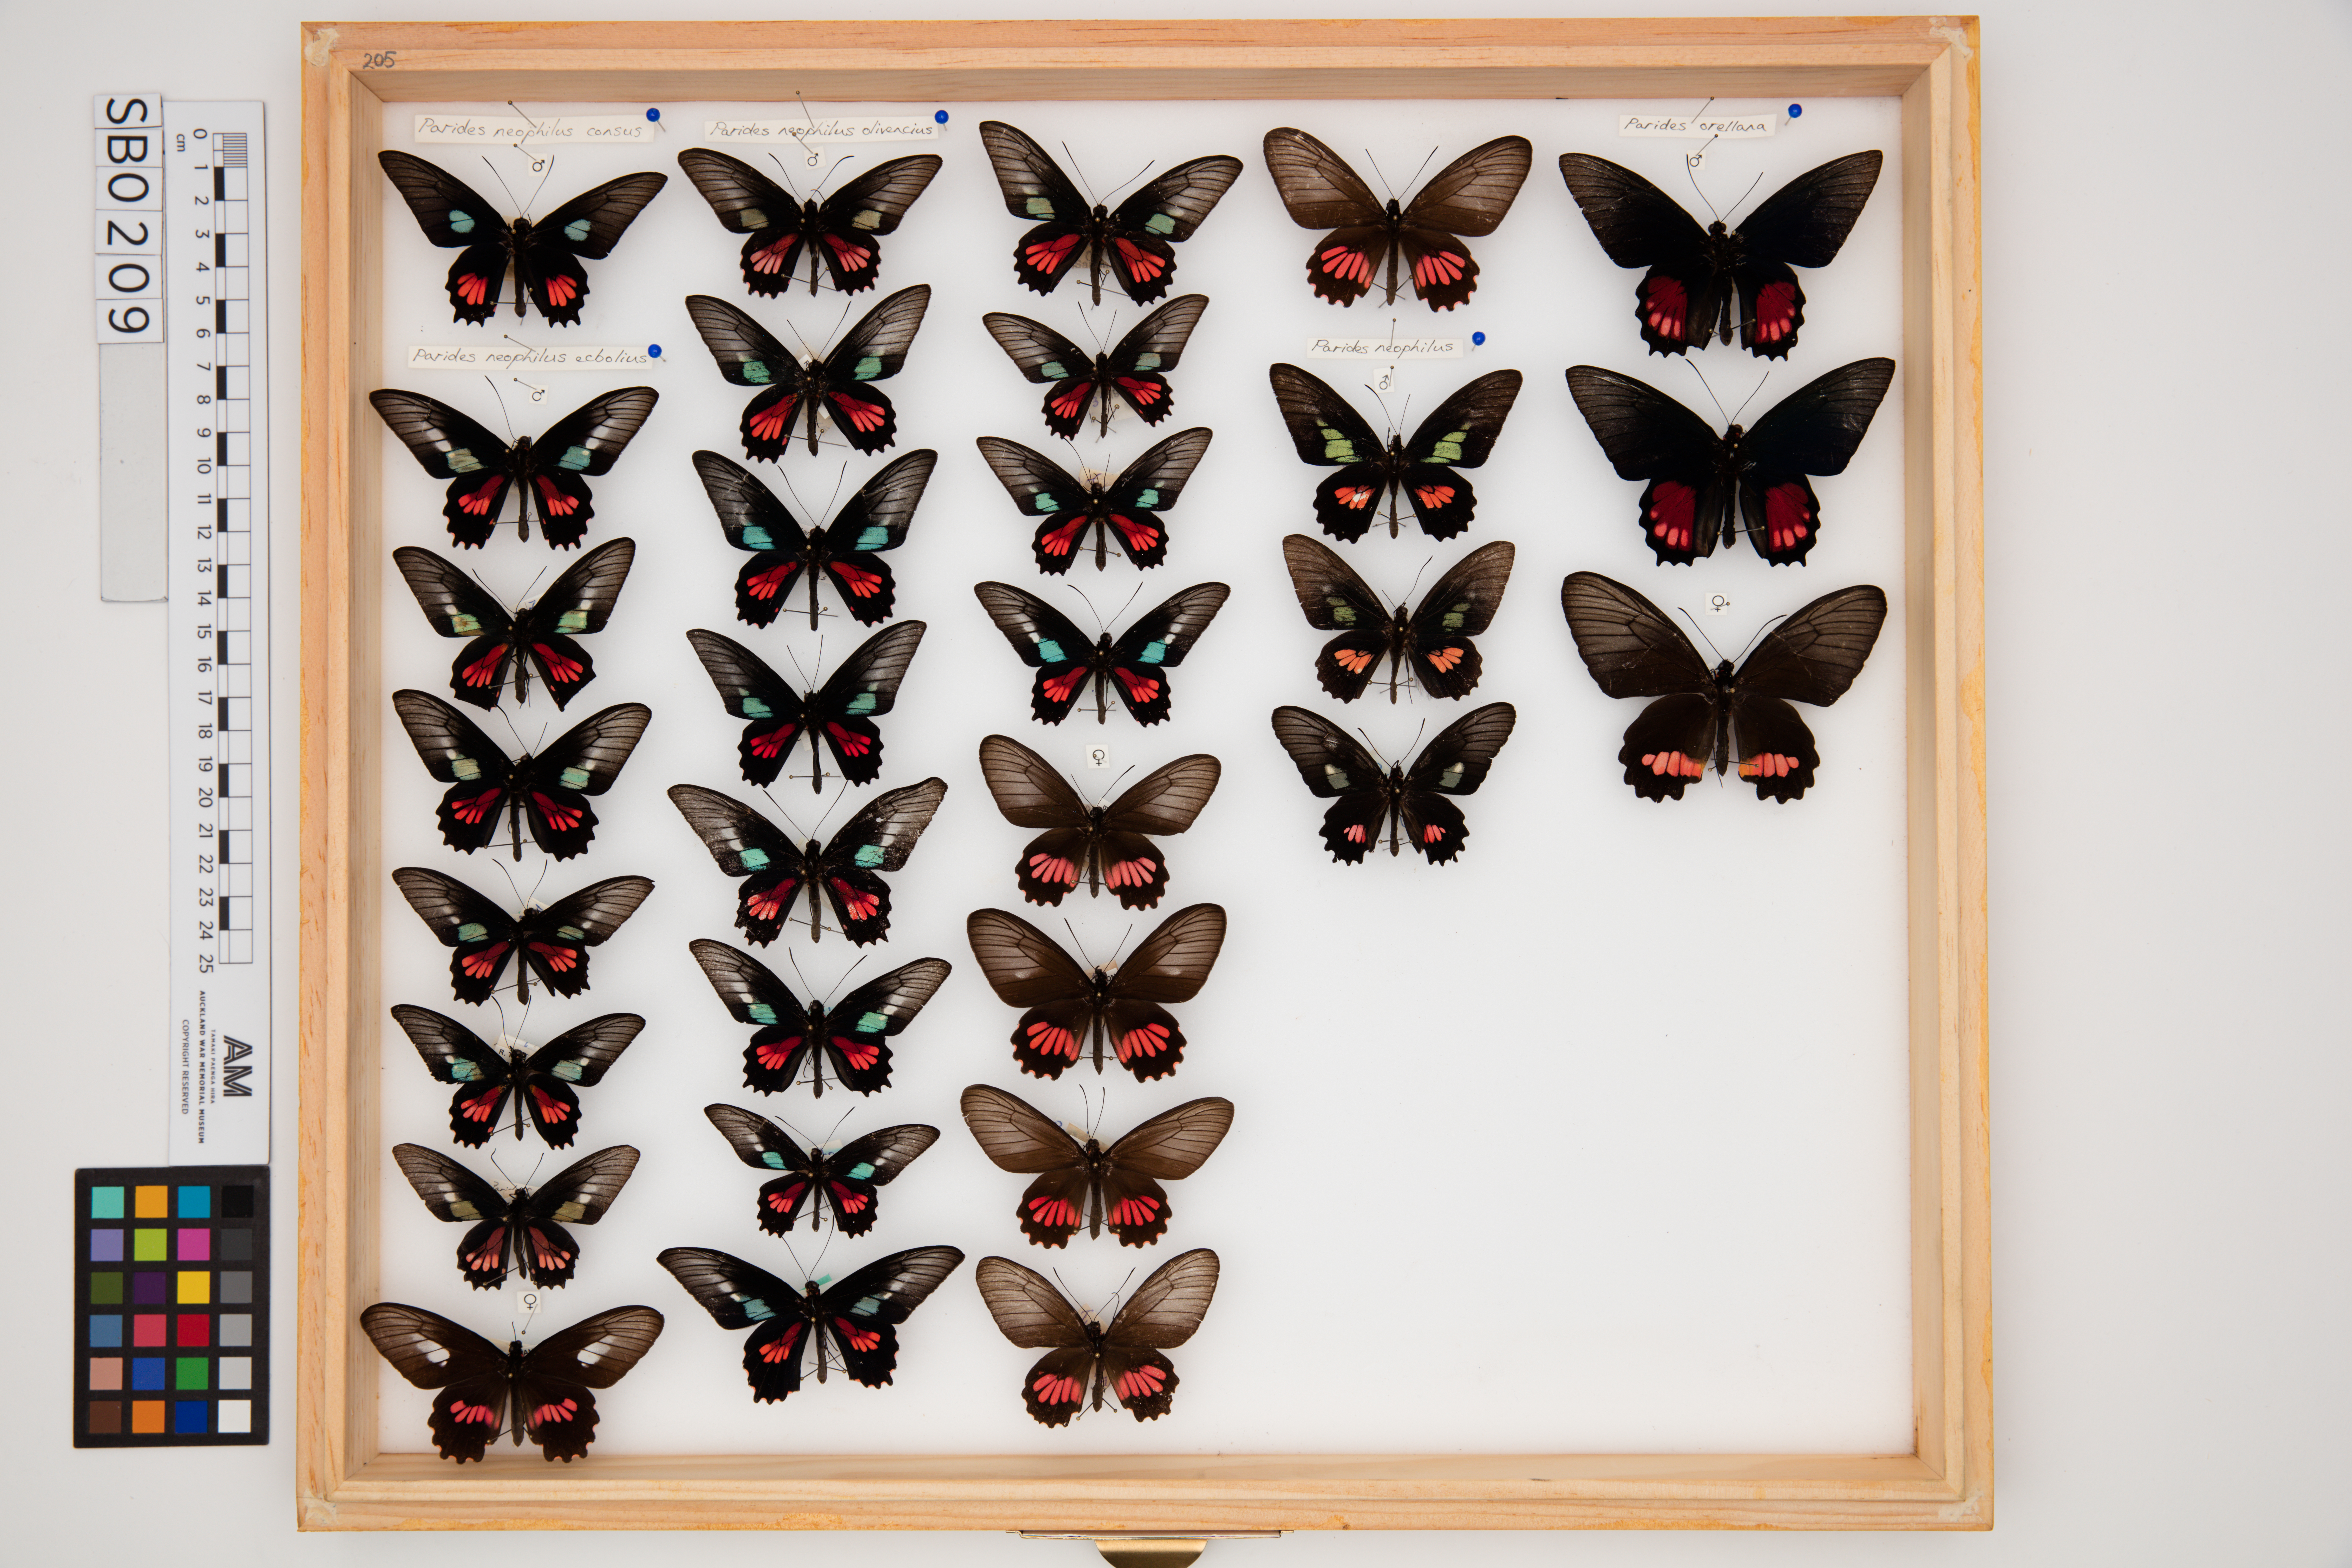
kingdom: Animalia
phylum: Arthropoda
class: Insecta
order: Lepidoptera
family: Papilionidae
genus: Parides
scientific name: Parides neophilus
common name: Spear-winged cattle heart
